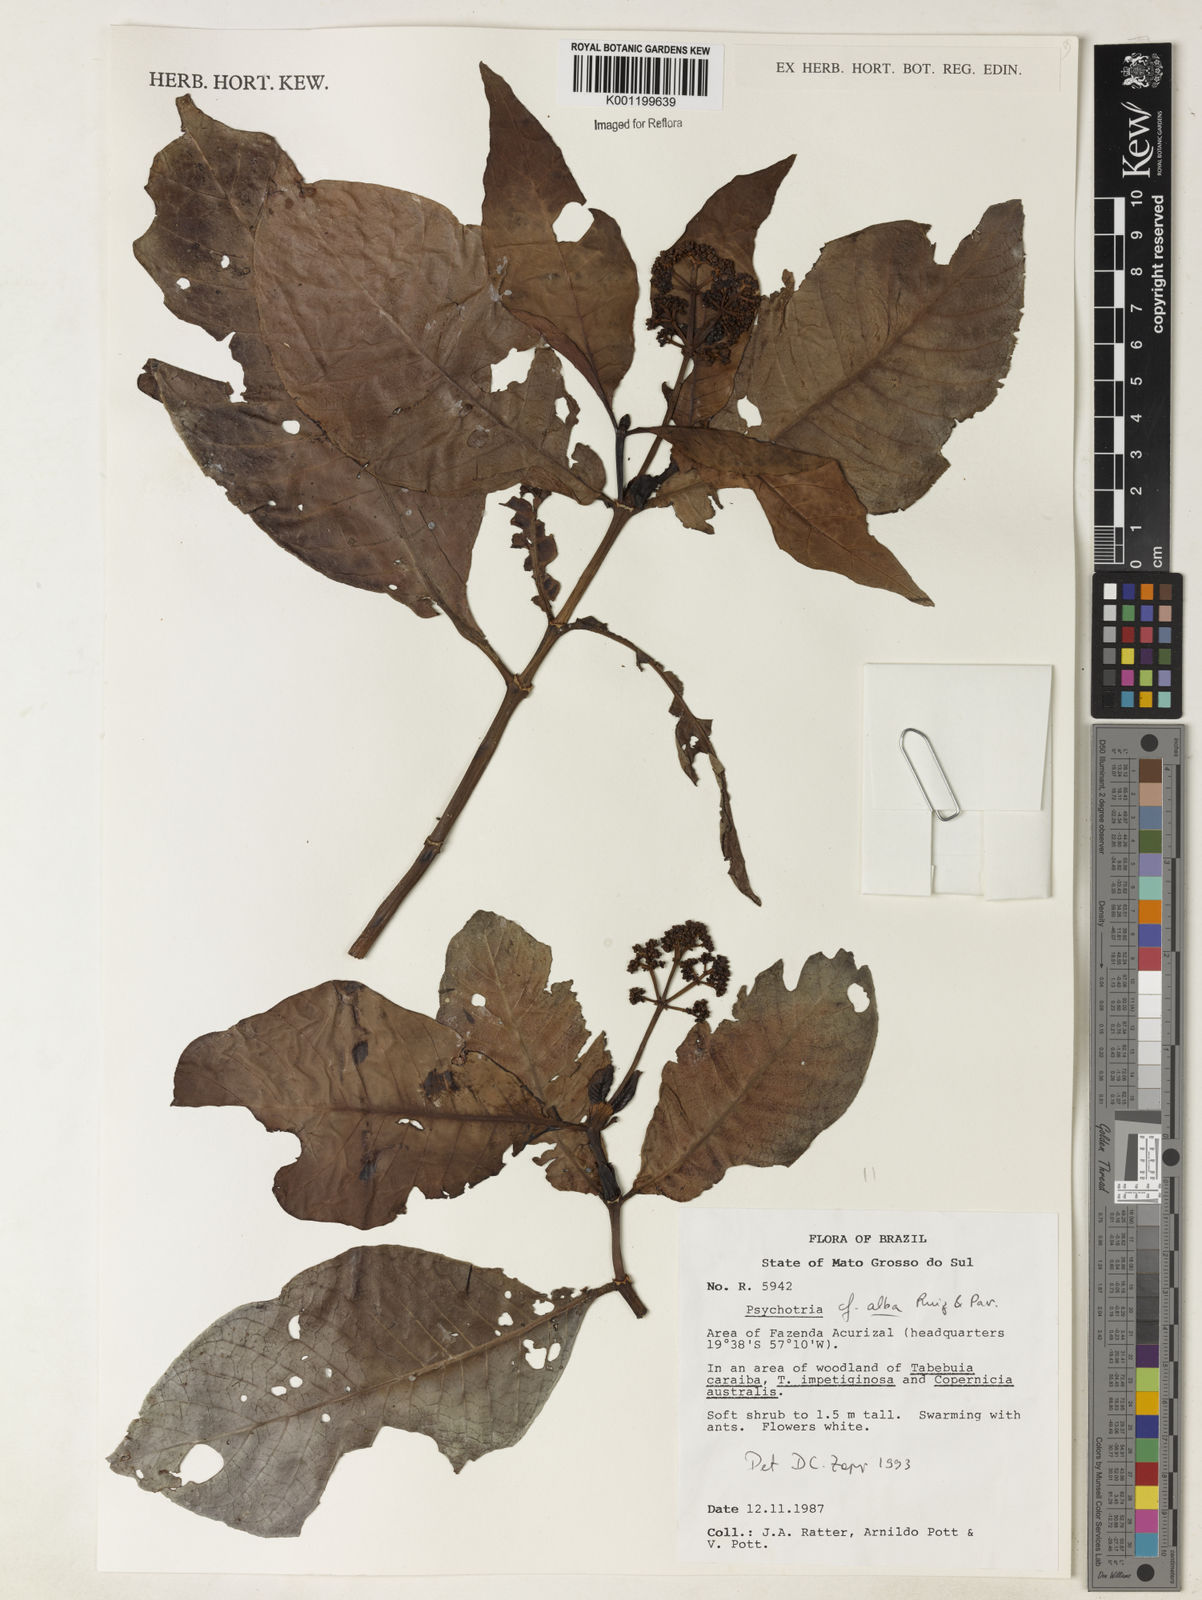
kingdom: Plantae
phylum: Tracheophyta
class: Magnoliopsida
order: Gentianales
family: Rubiaceae
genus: Psychotria
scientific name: Psychotria carthagenensis
